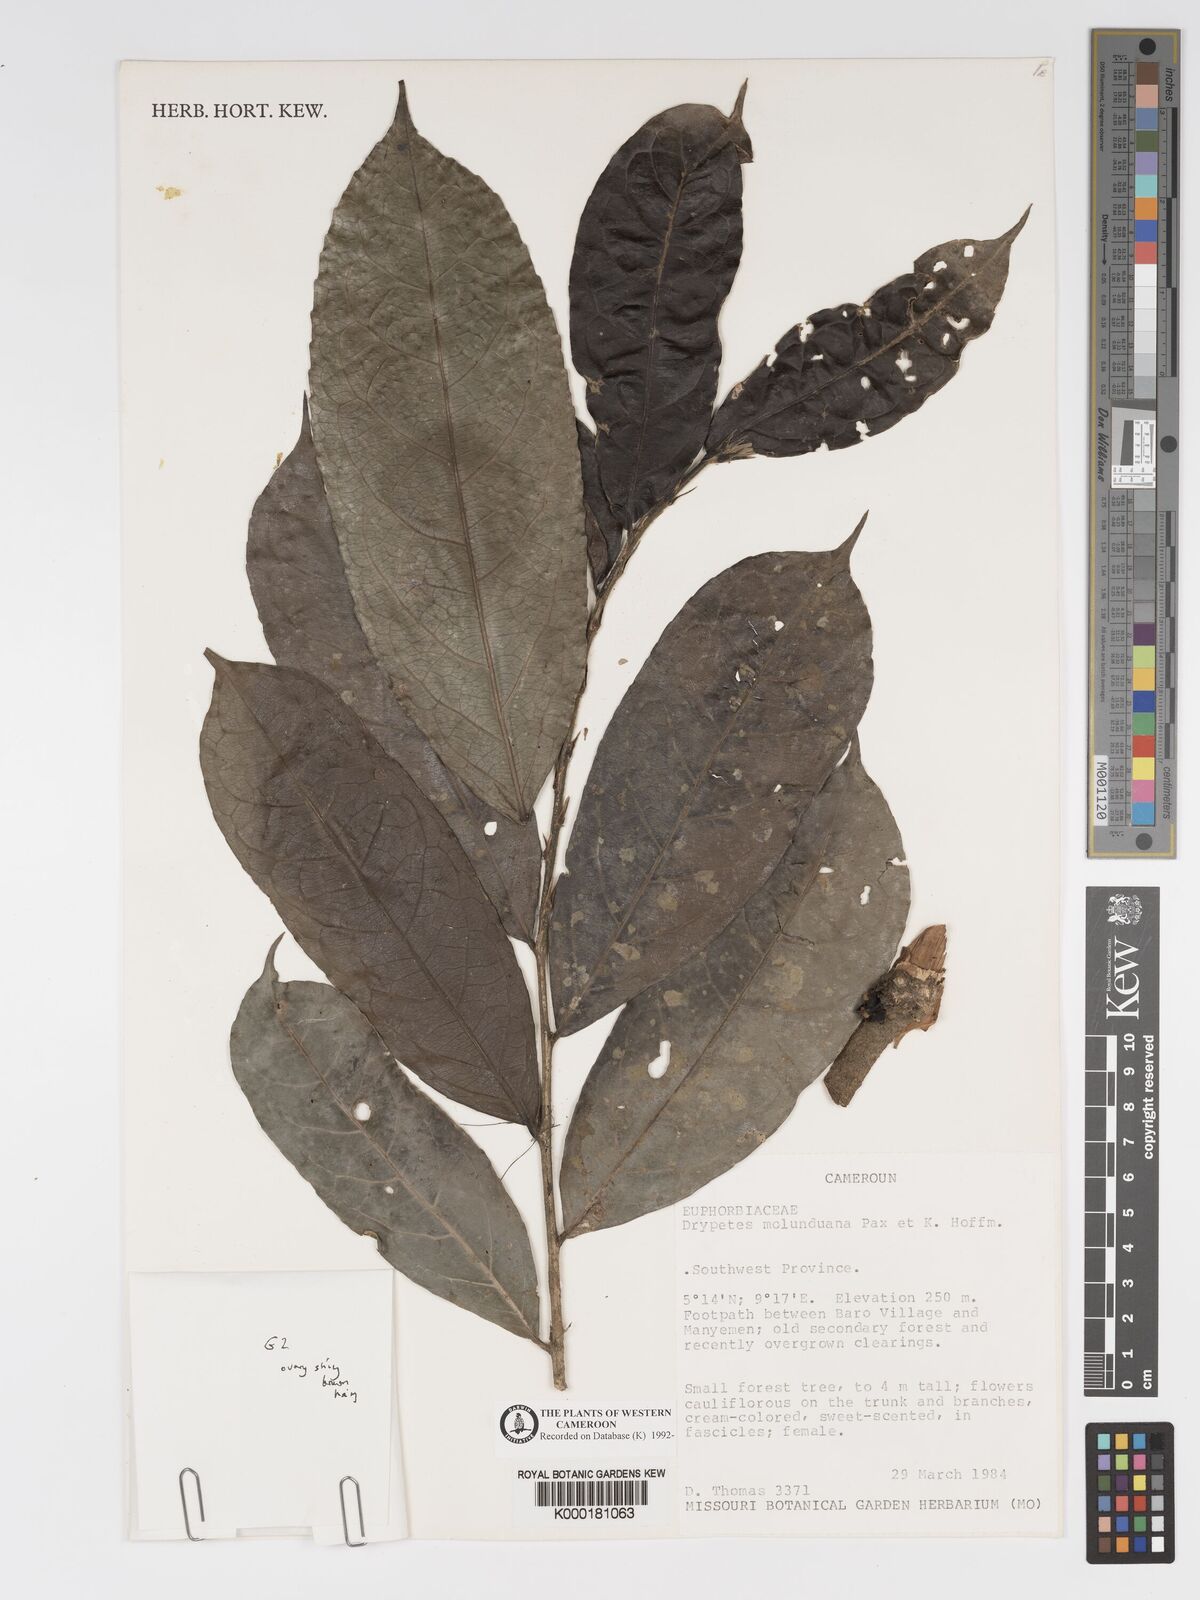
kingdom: Plantae
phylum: Tracheophyta
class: Magnoliopsida
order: Malpighiales
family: Putranjivaceae
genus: Drypetes
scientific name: Drypetes molunduana
